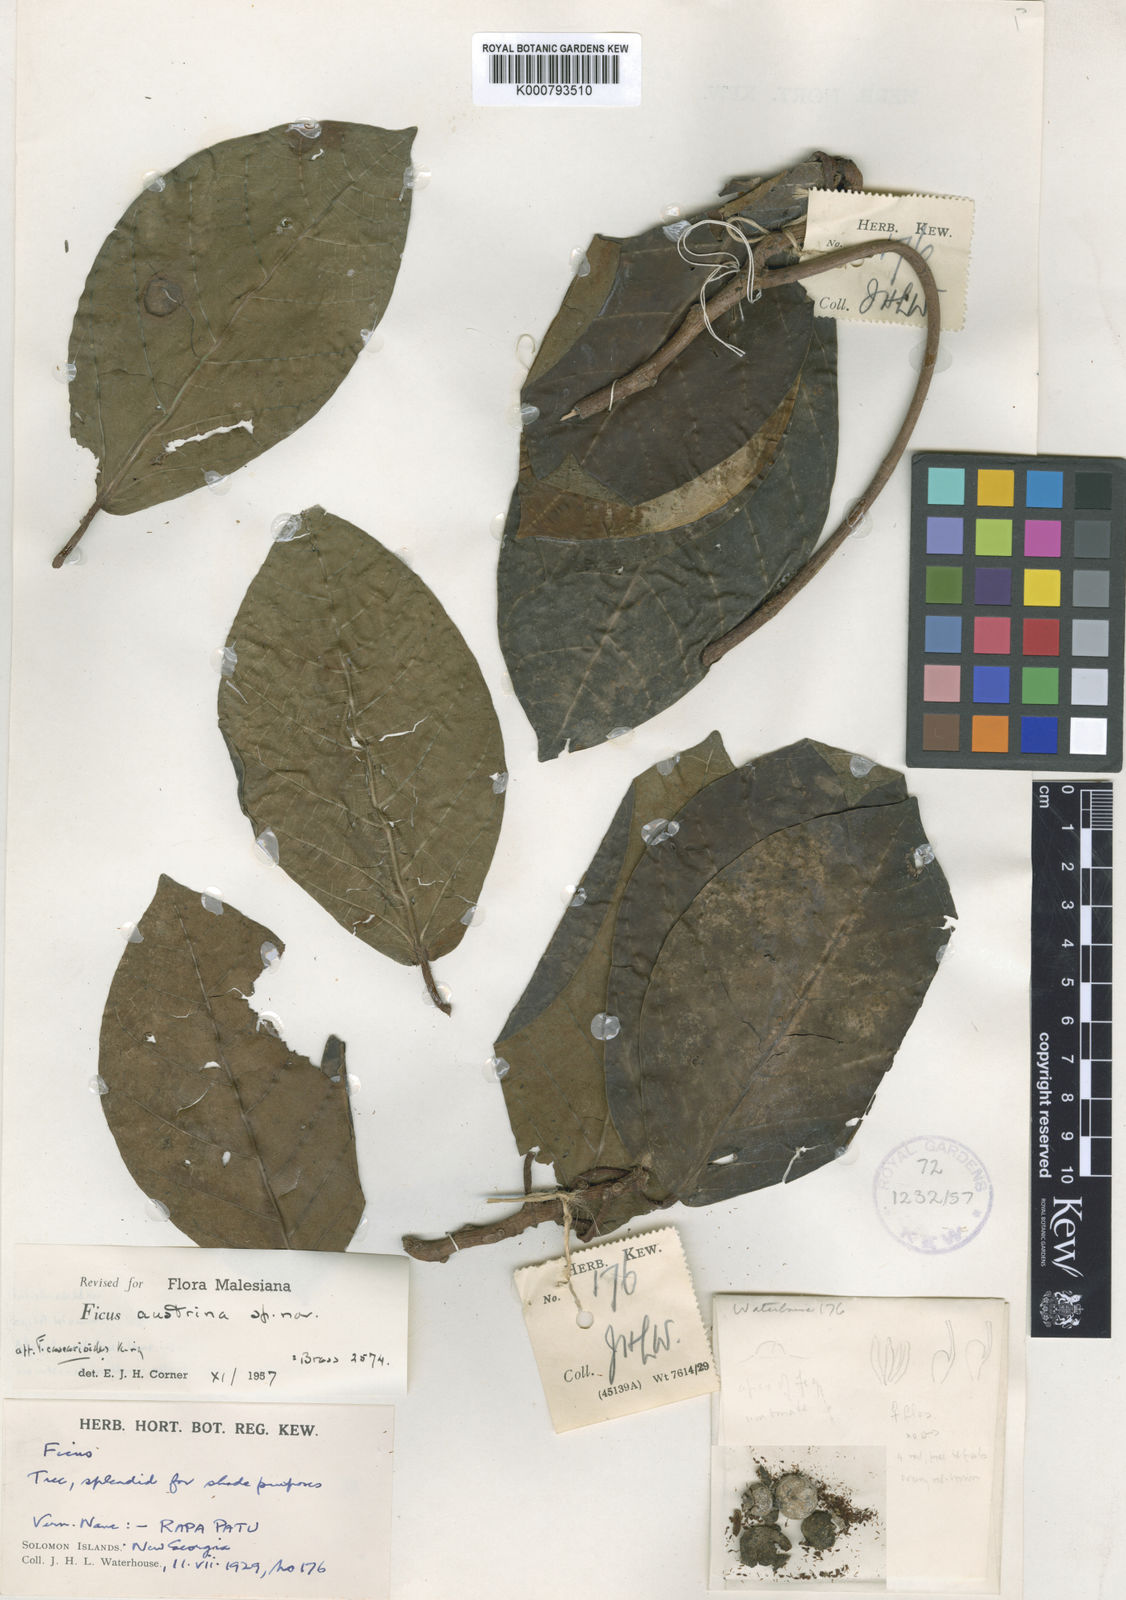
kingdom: Plantae
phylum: Tracheophyta
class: Magnoliopsida
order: Rosales
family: Moraceae
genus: Ficus
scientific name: Ficus austrina
